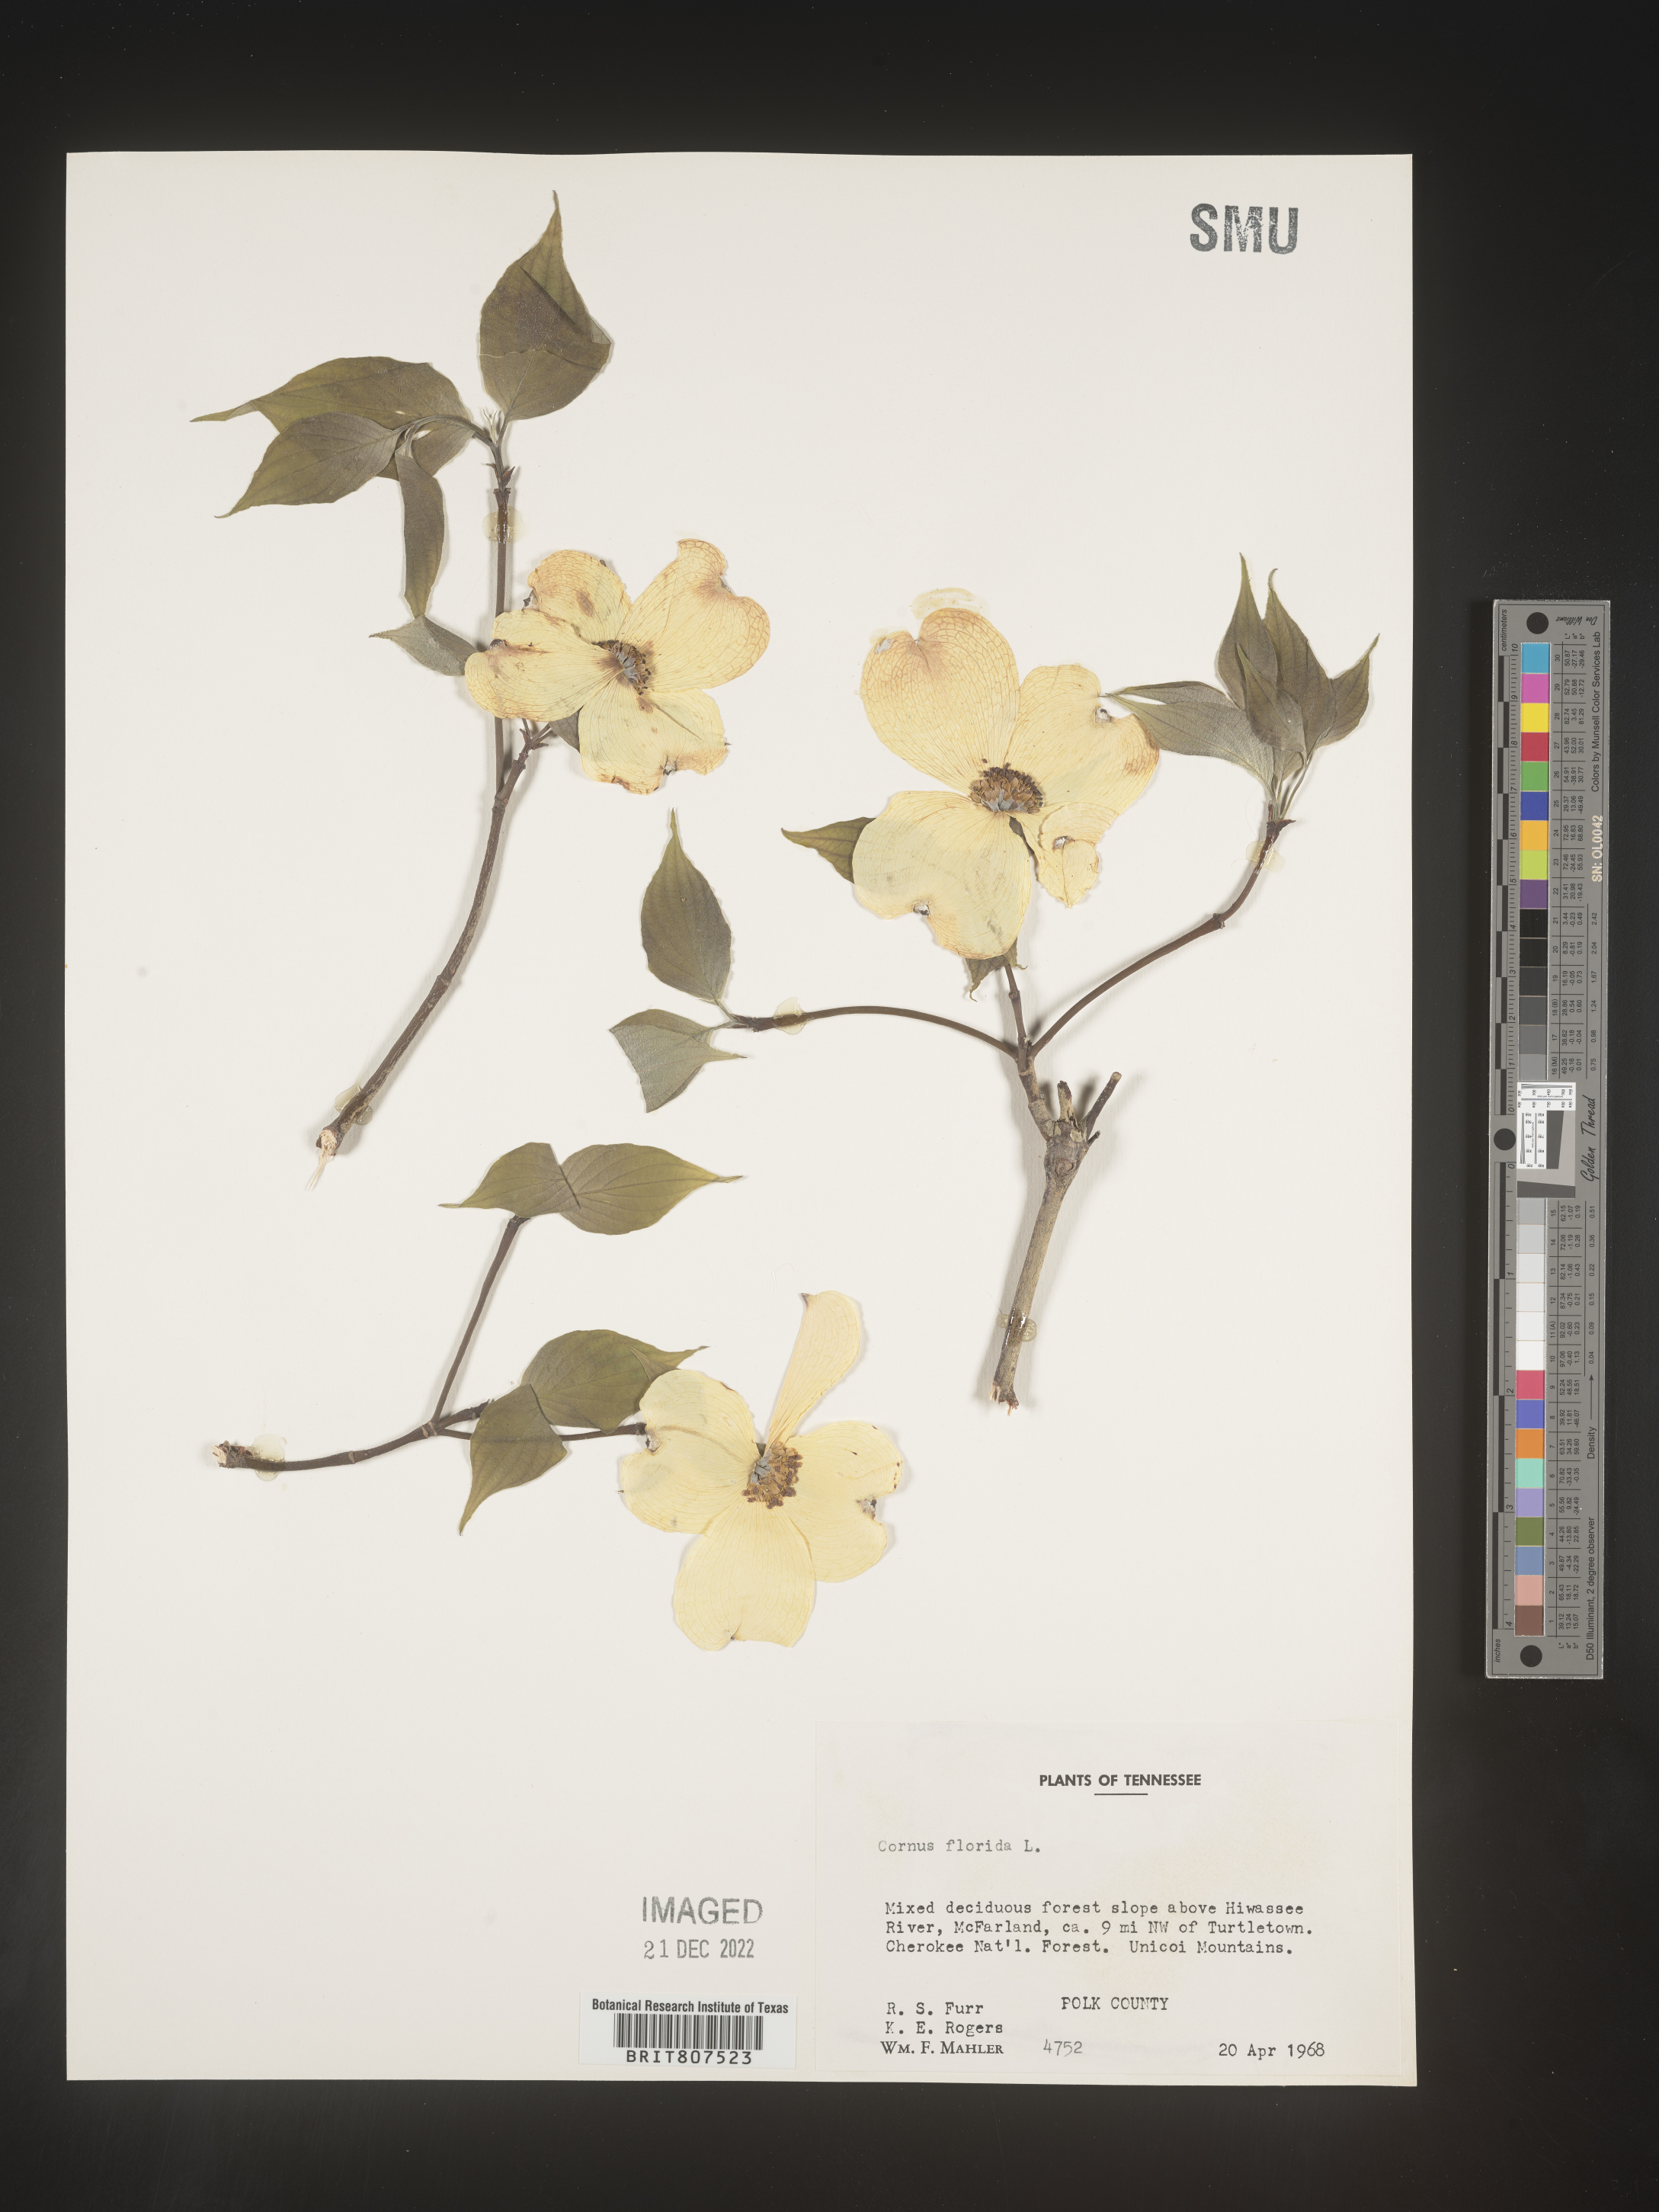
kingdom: Plantae
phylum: Tracheophyta
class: Magnoliopsida
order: Cornales
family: Cornaceae
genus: Cornus
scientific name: Cornus florida
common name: Flowering dogwood
